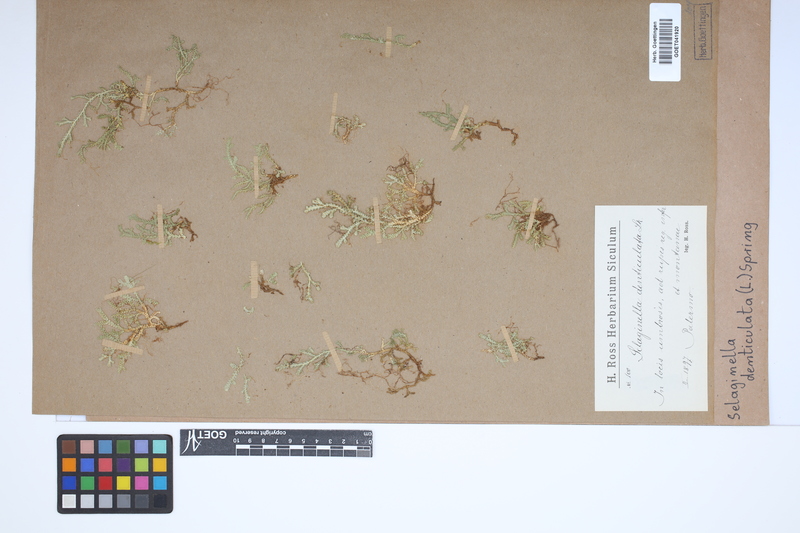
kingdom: Plantae
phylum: Tracheophyta
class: Lycopodiopsida
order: Selaginellales
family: Selaginellaceae
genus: Selaginella
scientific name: Selaginella denticulata
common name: Toothed-leaved clubmoss
